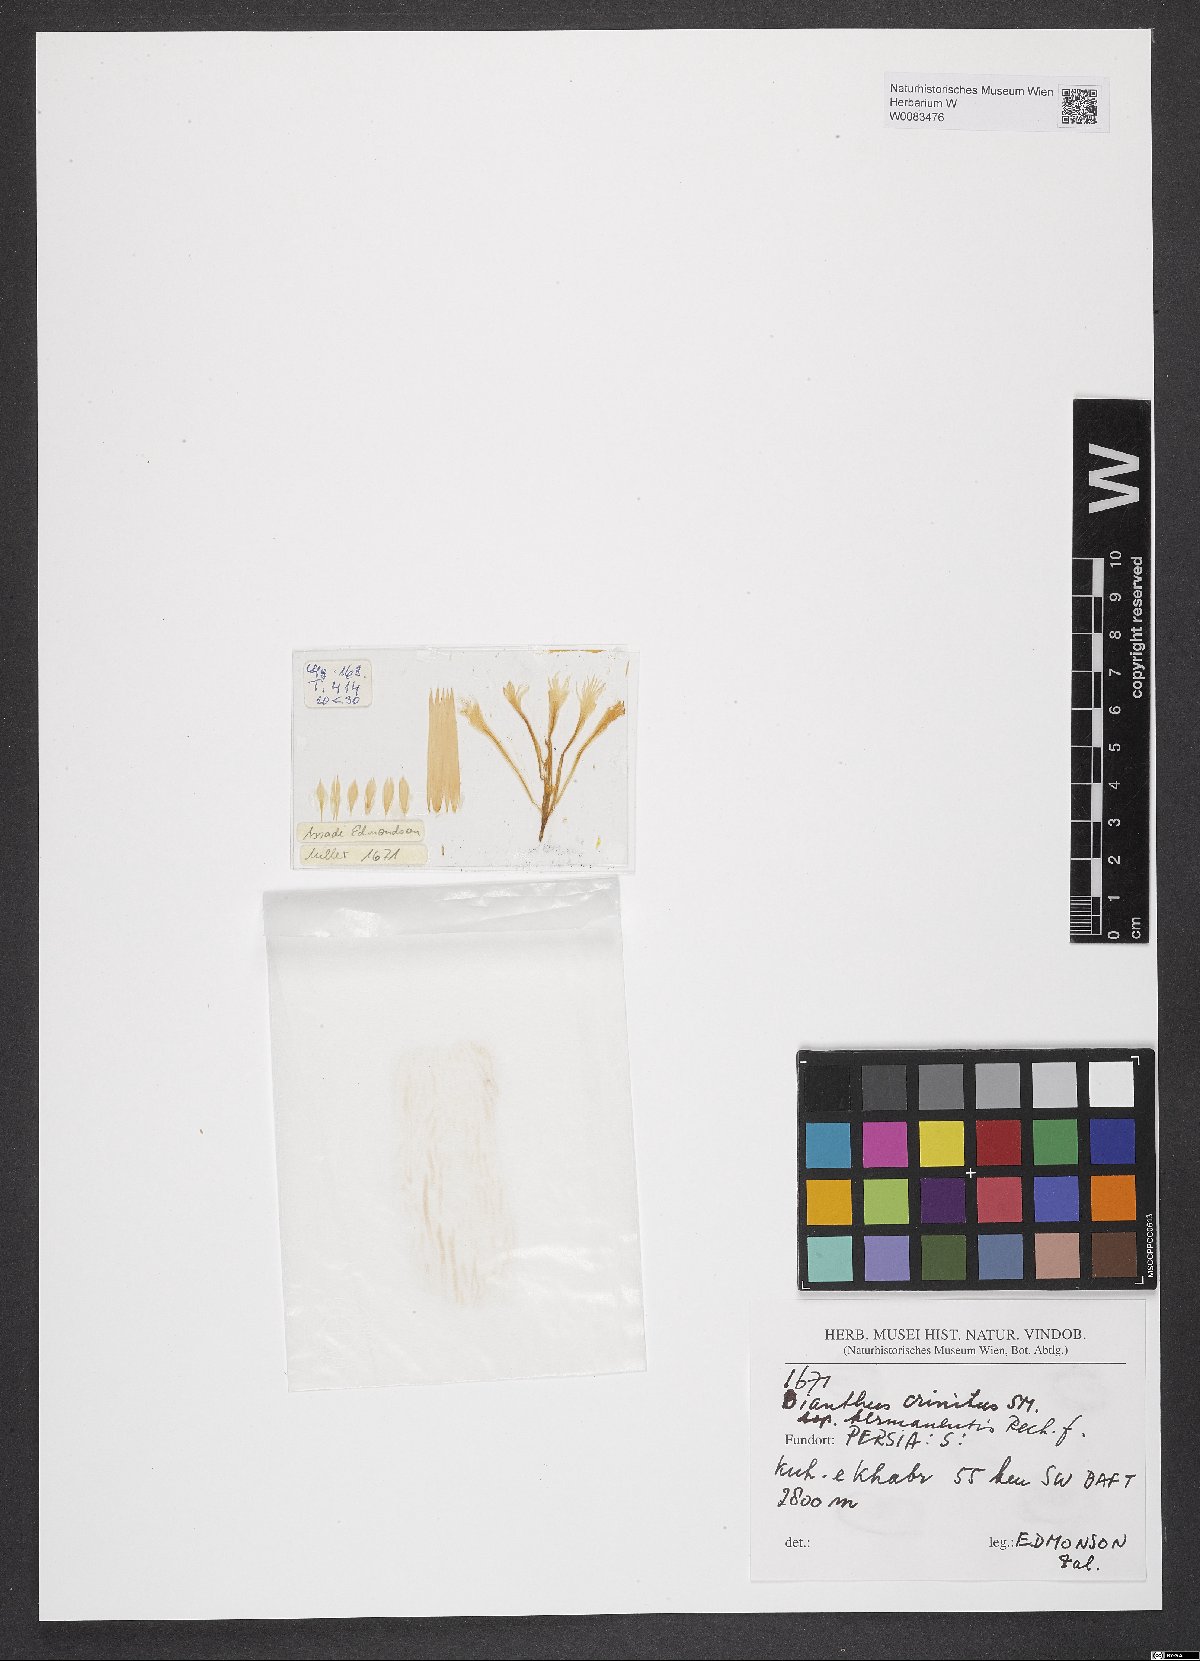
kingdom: Plantae
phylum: Tracheophyta
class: Magnoliopsida
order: Caryophyllales
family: Caryophyllaceae
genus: Dianthus
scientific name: Dianthus crinitus
